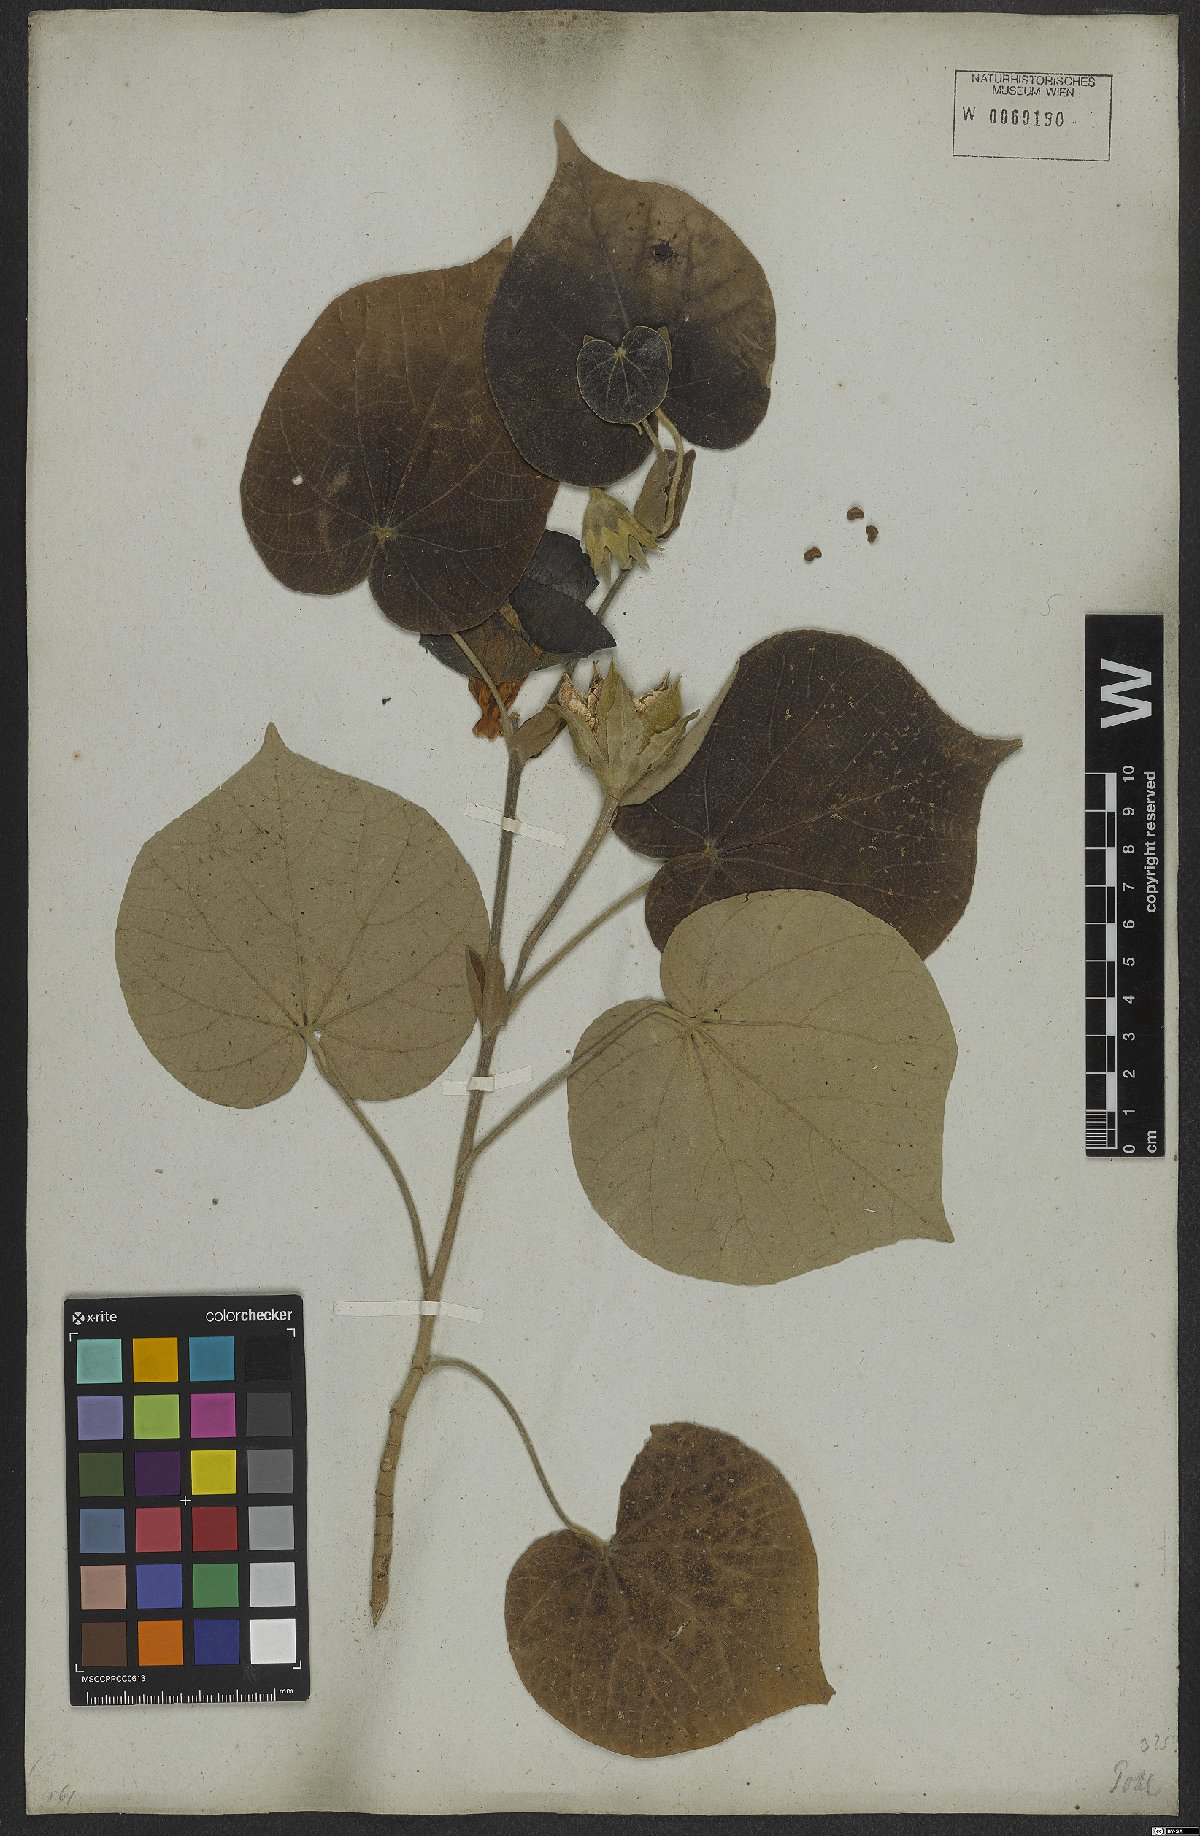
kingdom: Plantae
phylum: Tracheophyta
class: Magnoliopsida
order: Malvales
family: Malvaceae
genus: Talipariti
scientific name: Talipariti tiliaceum
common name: Sea hibiscus
